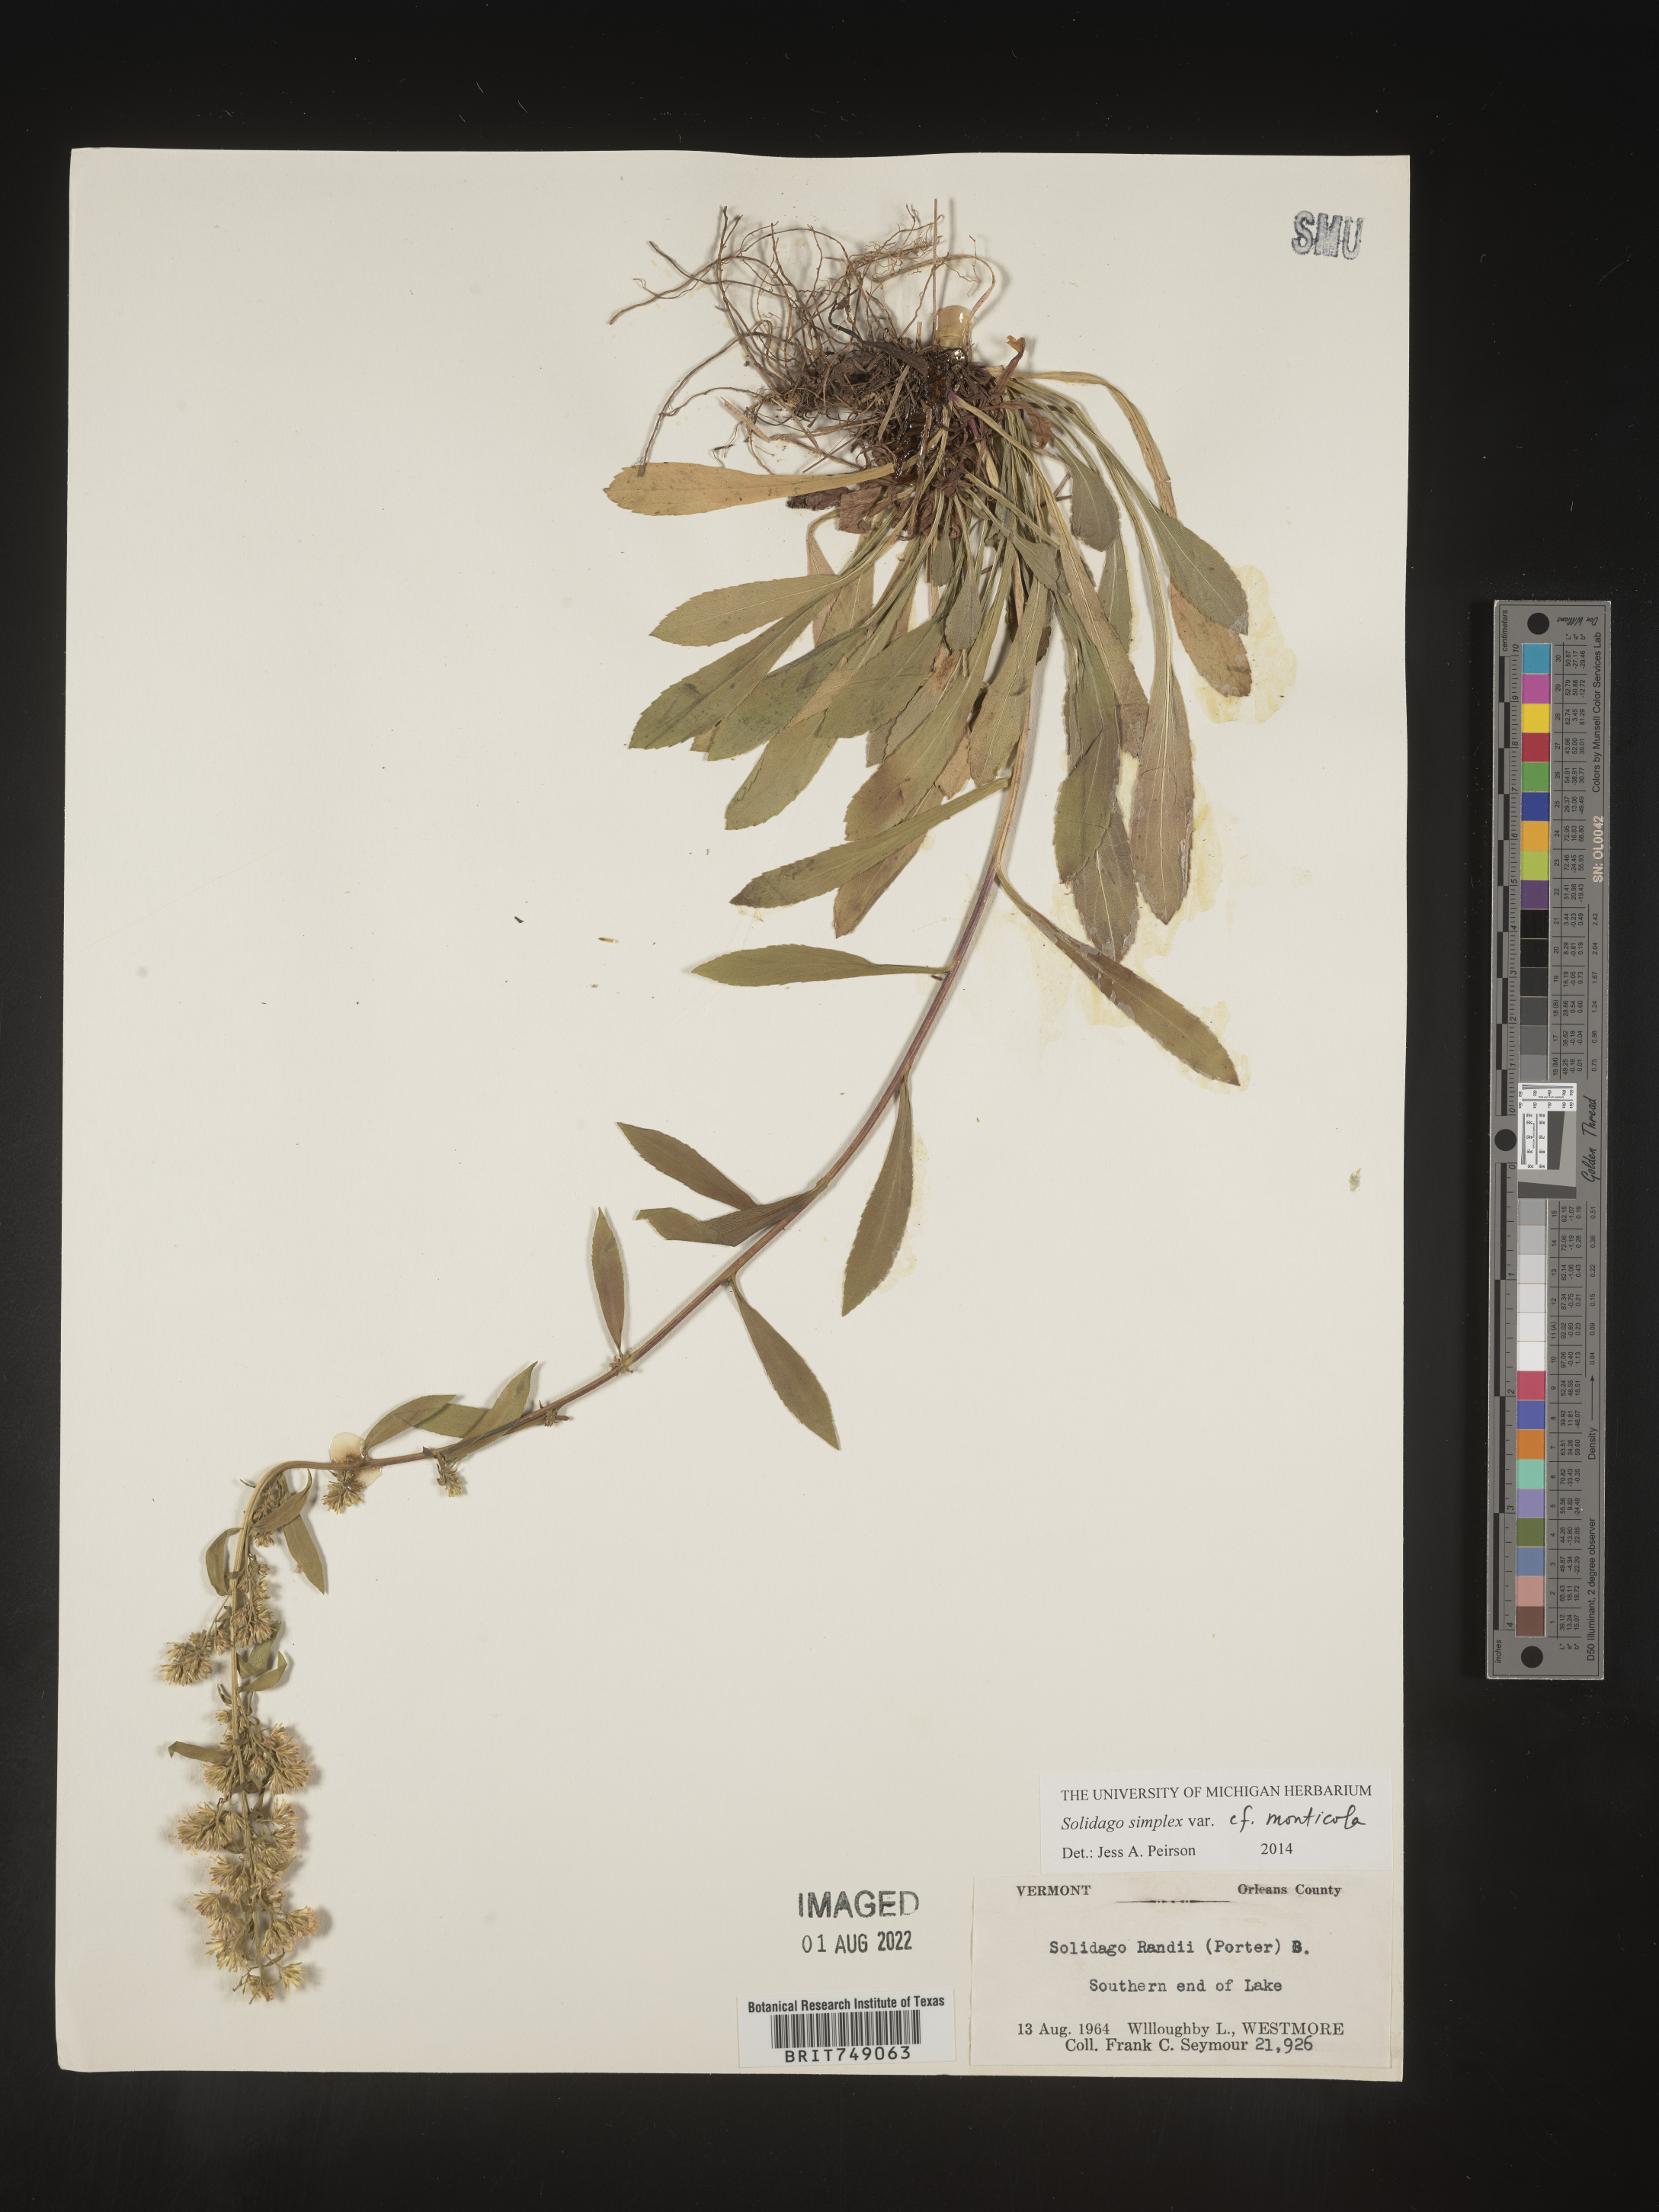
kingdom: Plantae
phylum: Tracheophyta
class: Magnoliopsida
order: Asterales
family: Asteraceae
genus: Solidago
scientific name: Solidago simplex
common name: Sticky goldenrod
